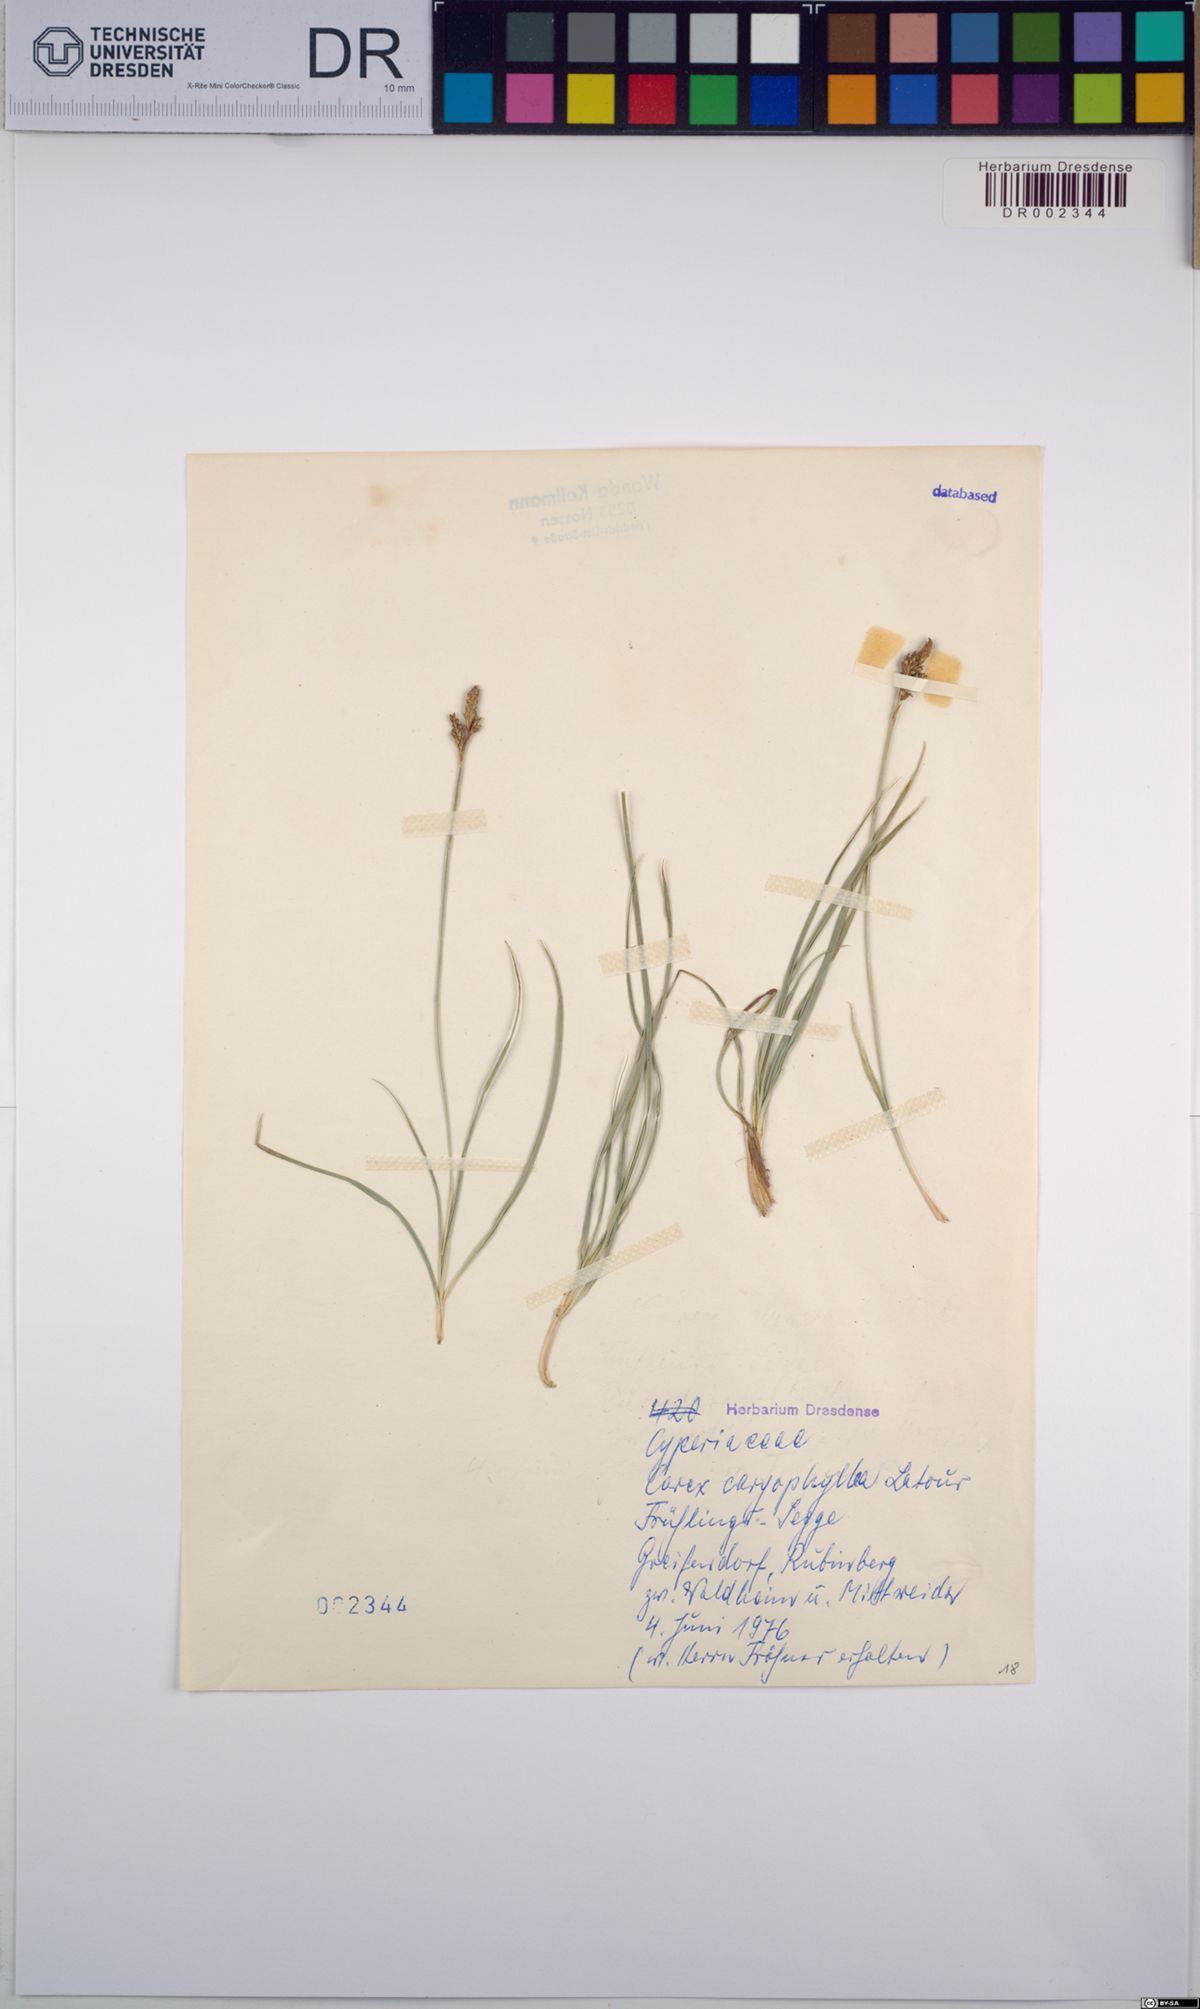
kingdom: Plantae
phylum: Tracheophyta
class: Liliopsida
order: Poales
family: Cyperaceae
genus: Carex
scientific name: Carex caryophyllea
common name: Spring sedge
